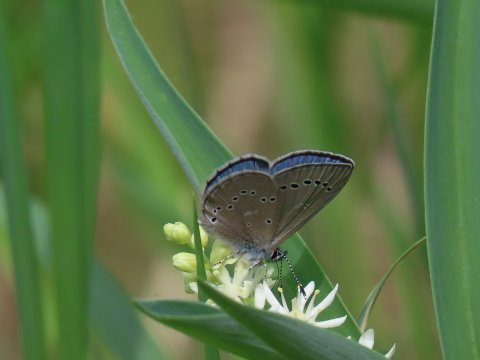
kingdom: Animalia
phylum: Arthropoda
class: Insecta
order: Lepidoptera
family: Lycaenidae
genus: Glaucopsyche
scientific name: Glaucopsyche lygdamus
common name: Silvery Blue
